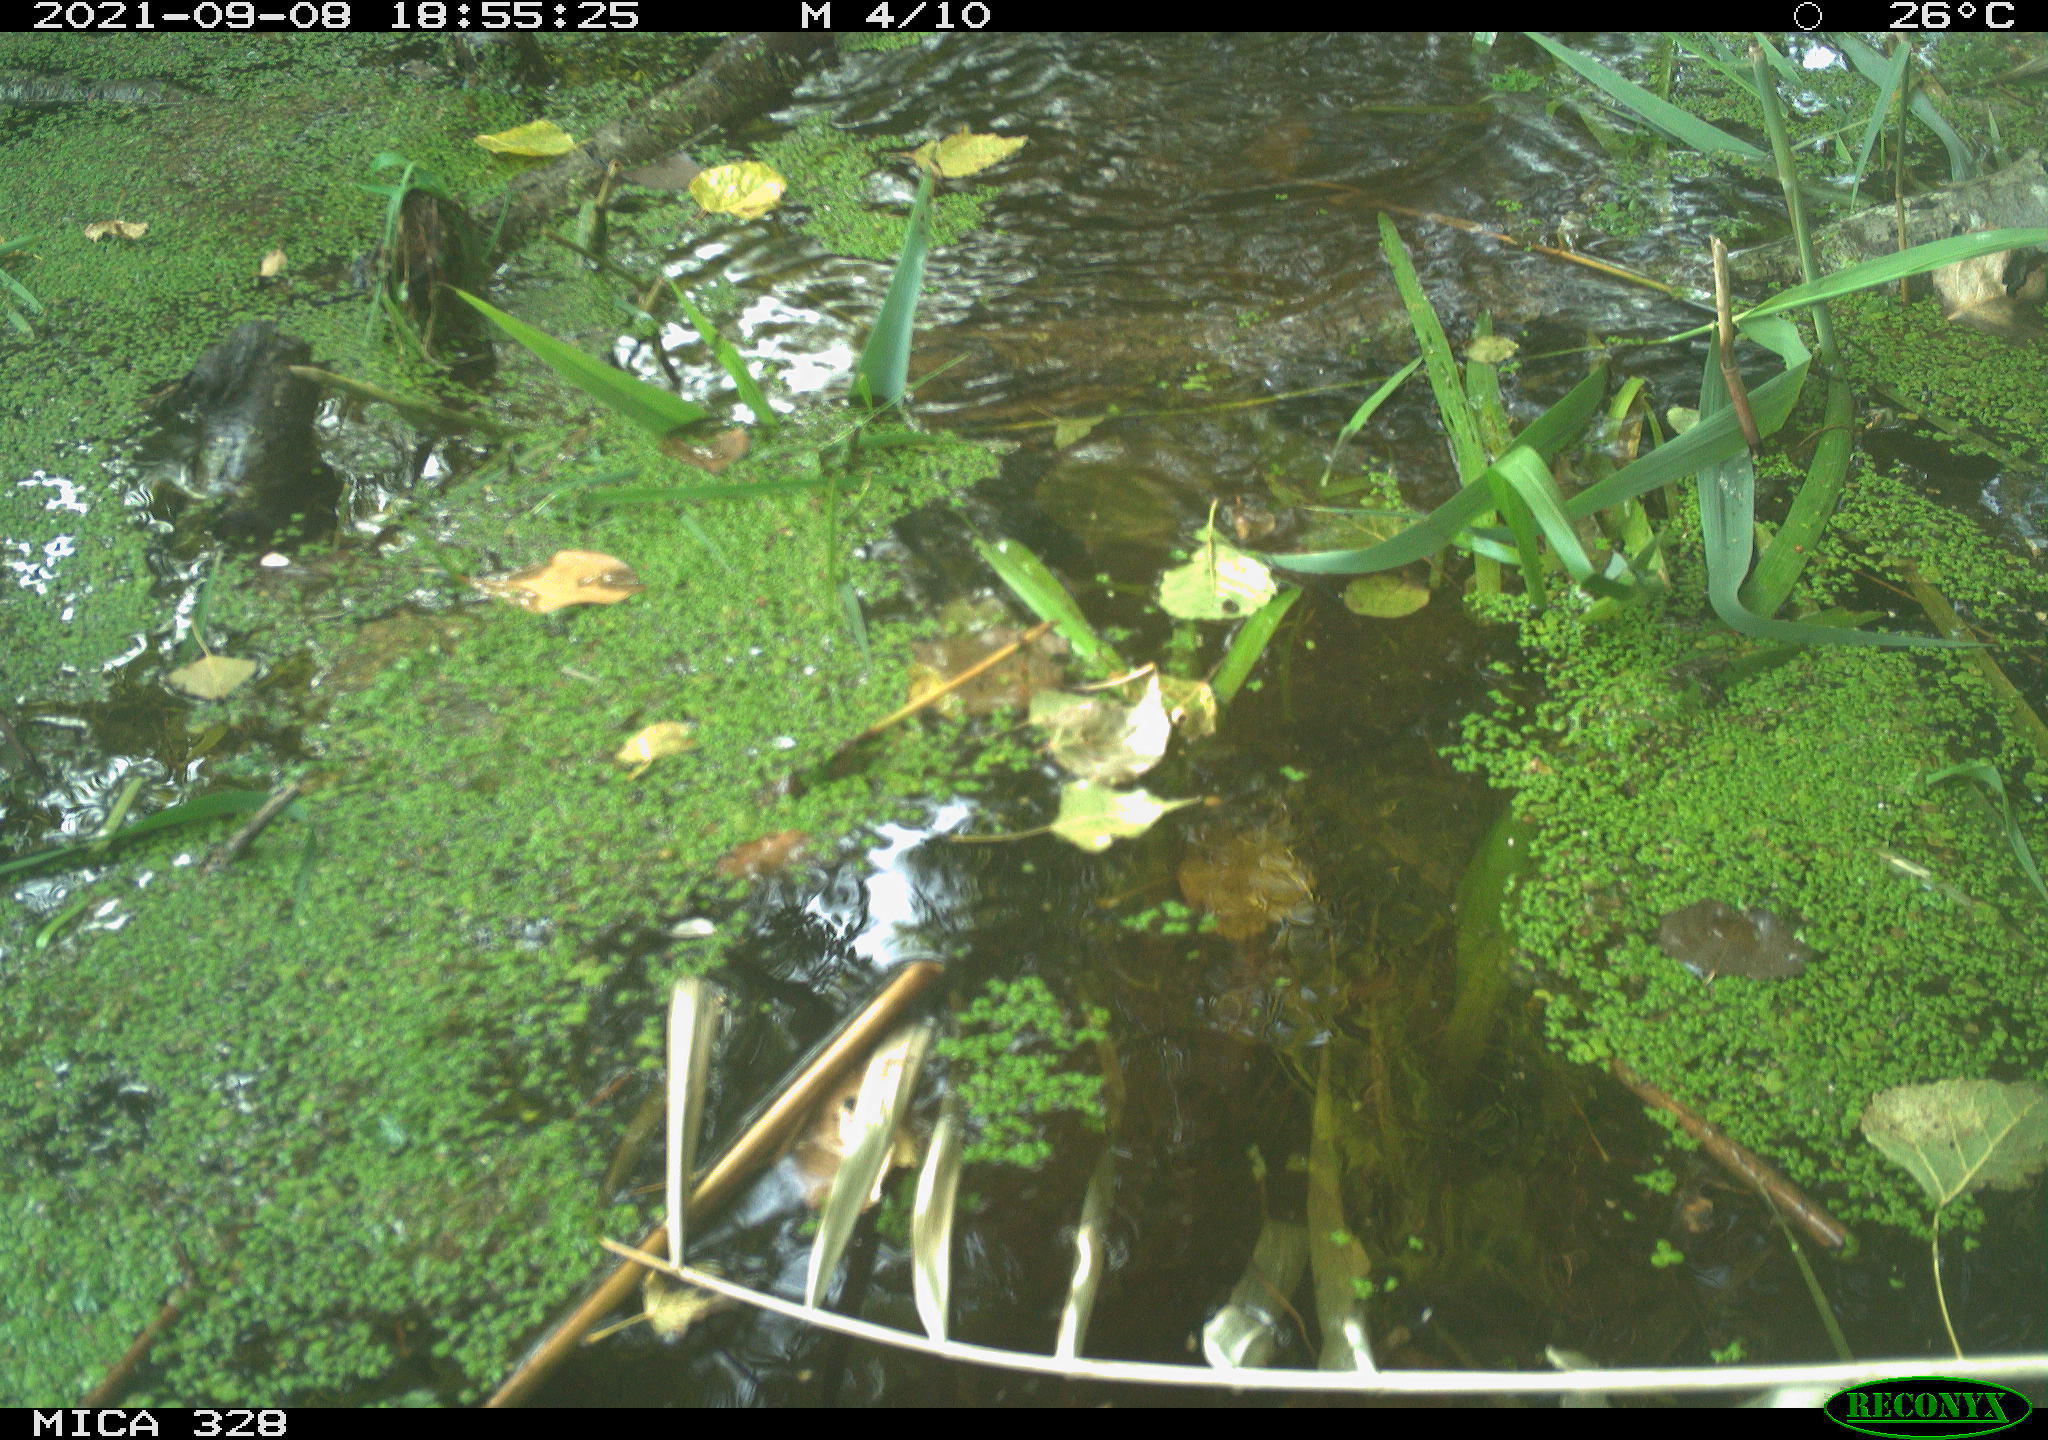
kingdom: Animalia
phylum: Chordata
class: Mammalia
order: Rodentia
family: Cricetidae
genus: Ondatra
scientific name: Ondatra zibethicus
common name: Muskrat
